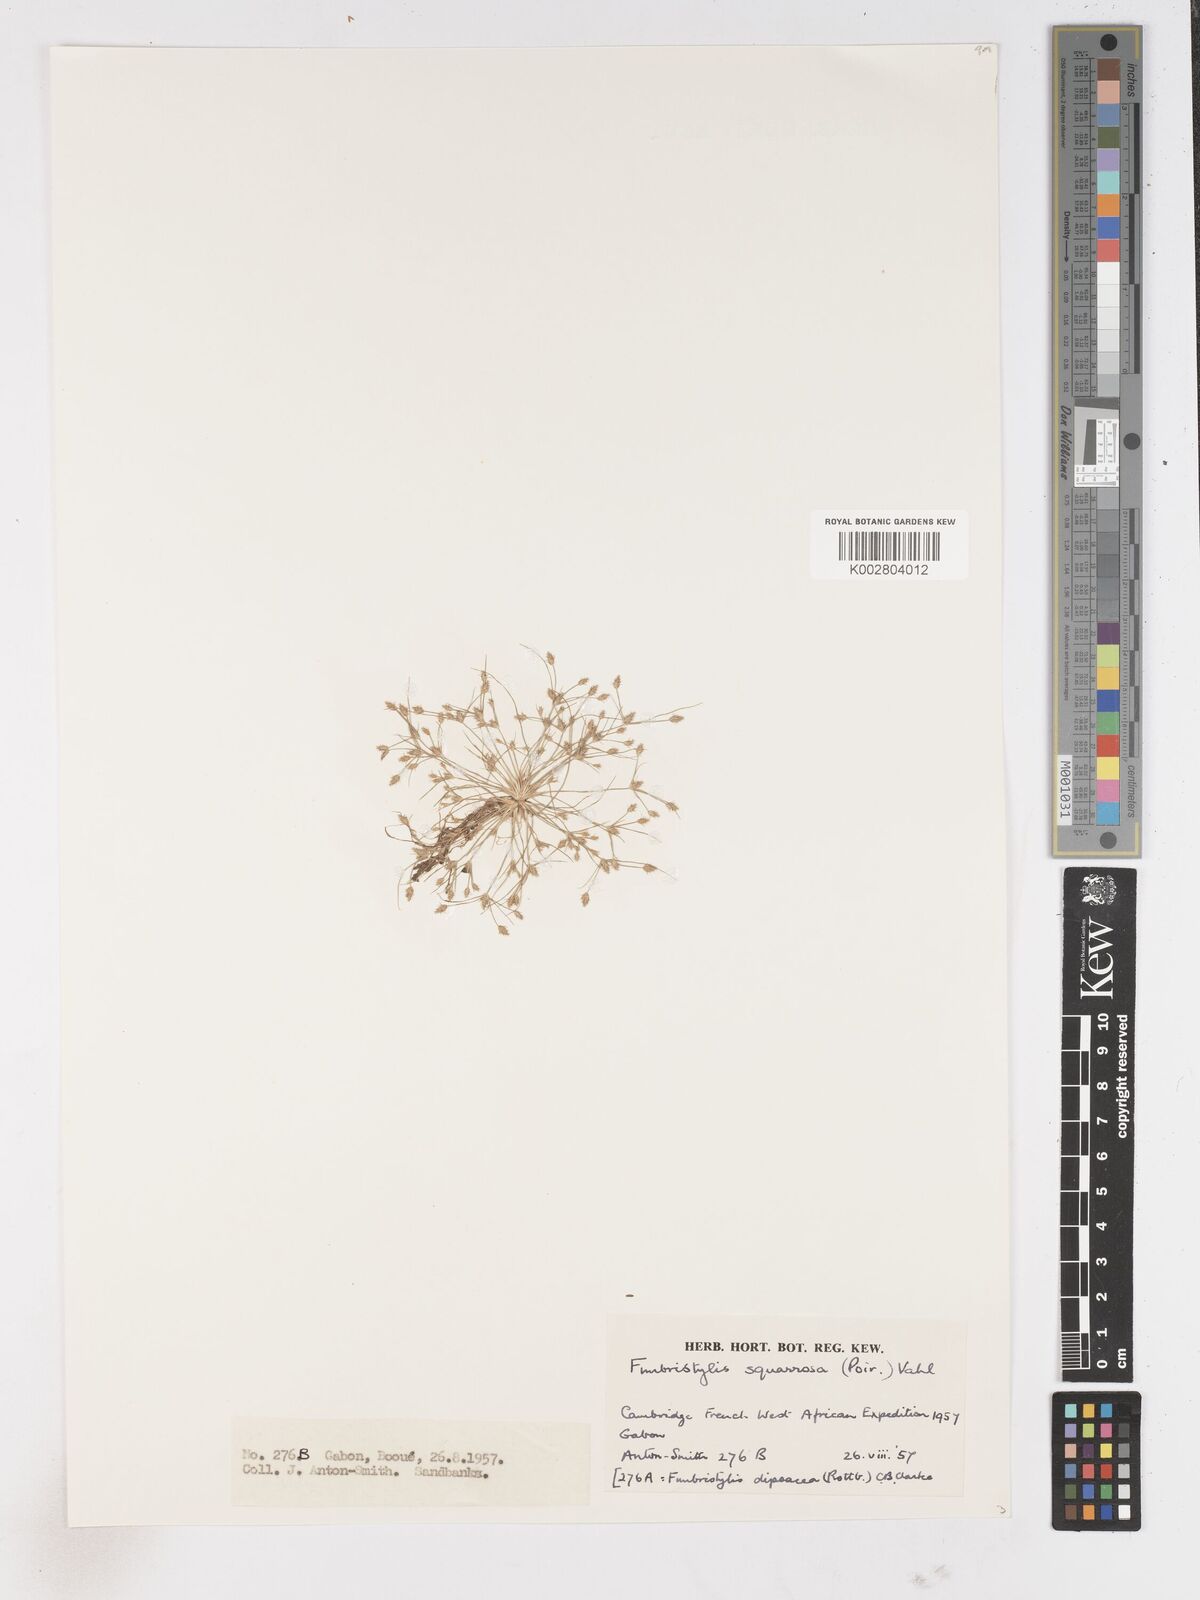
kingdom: Plantae
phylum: Tracheophyta
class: Liliopsida
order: Poales
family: Cyperaceae
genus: Fimbristylis
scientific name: Fimbristylis squarrosa
